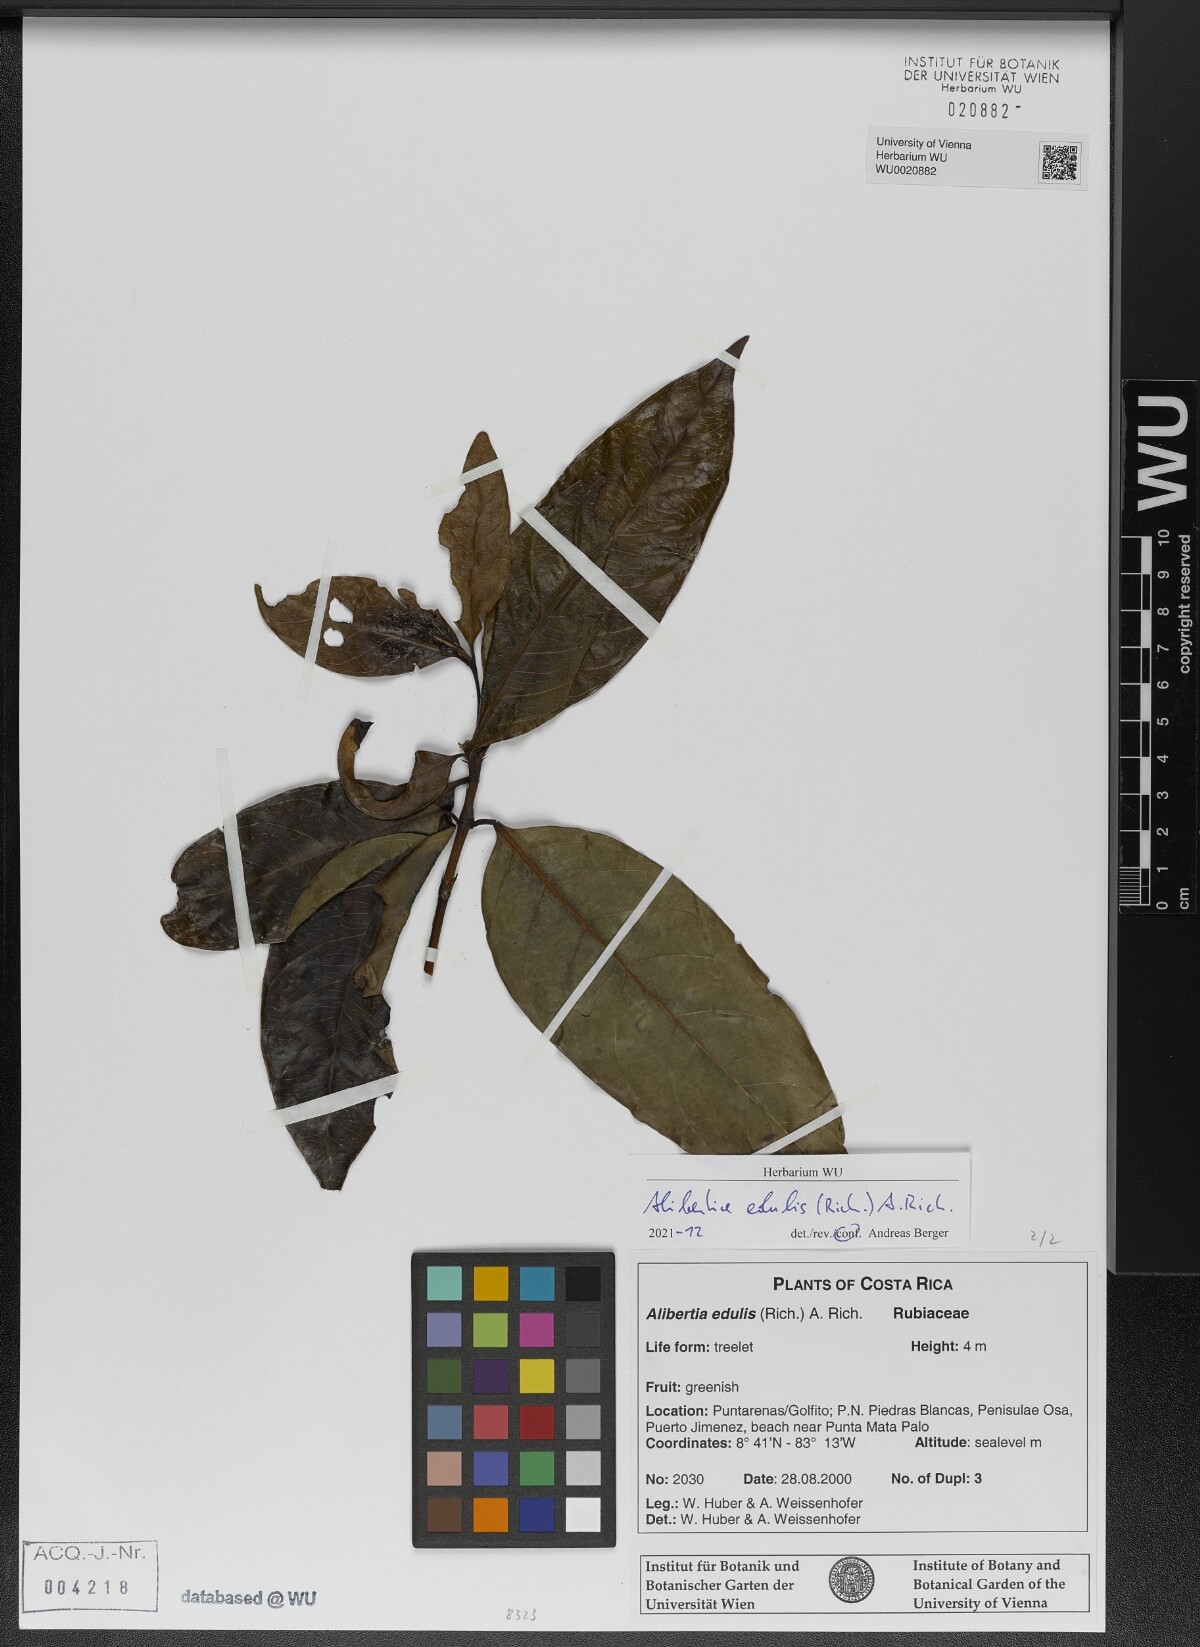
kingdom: Plantae
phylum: Tracheophyta
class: Magnoliopsida
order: Gentianales
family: Rubiaceae
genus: Alibertia
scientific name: Alibertia edulis
